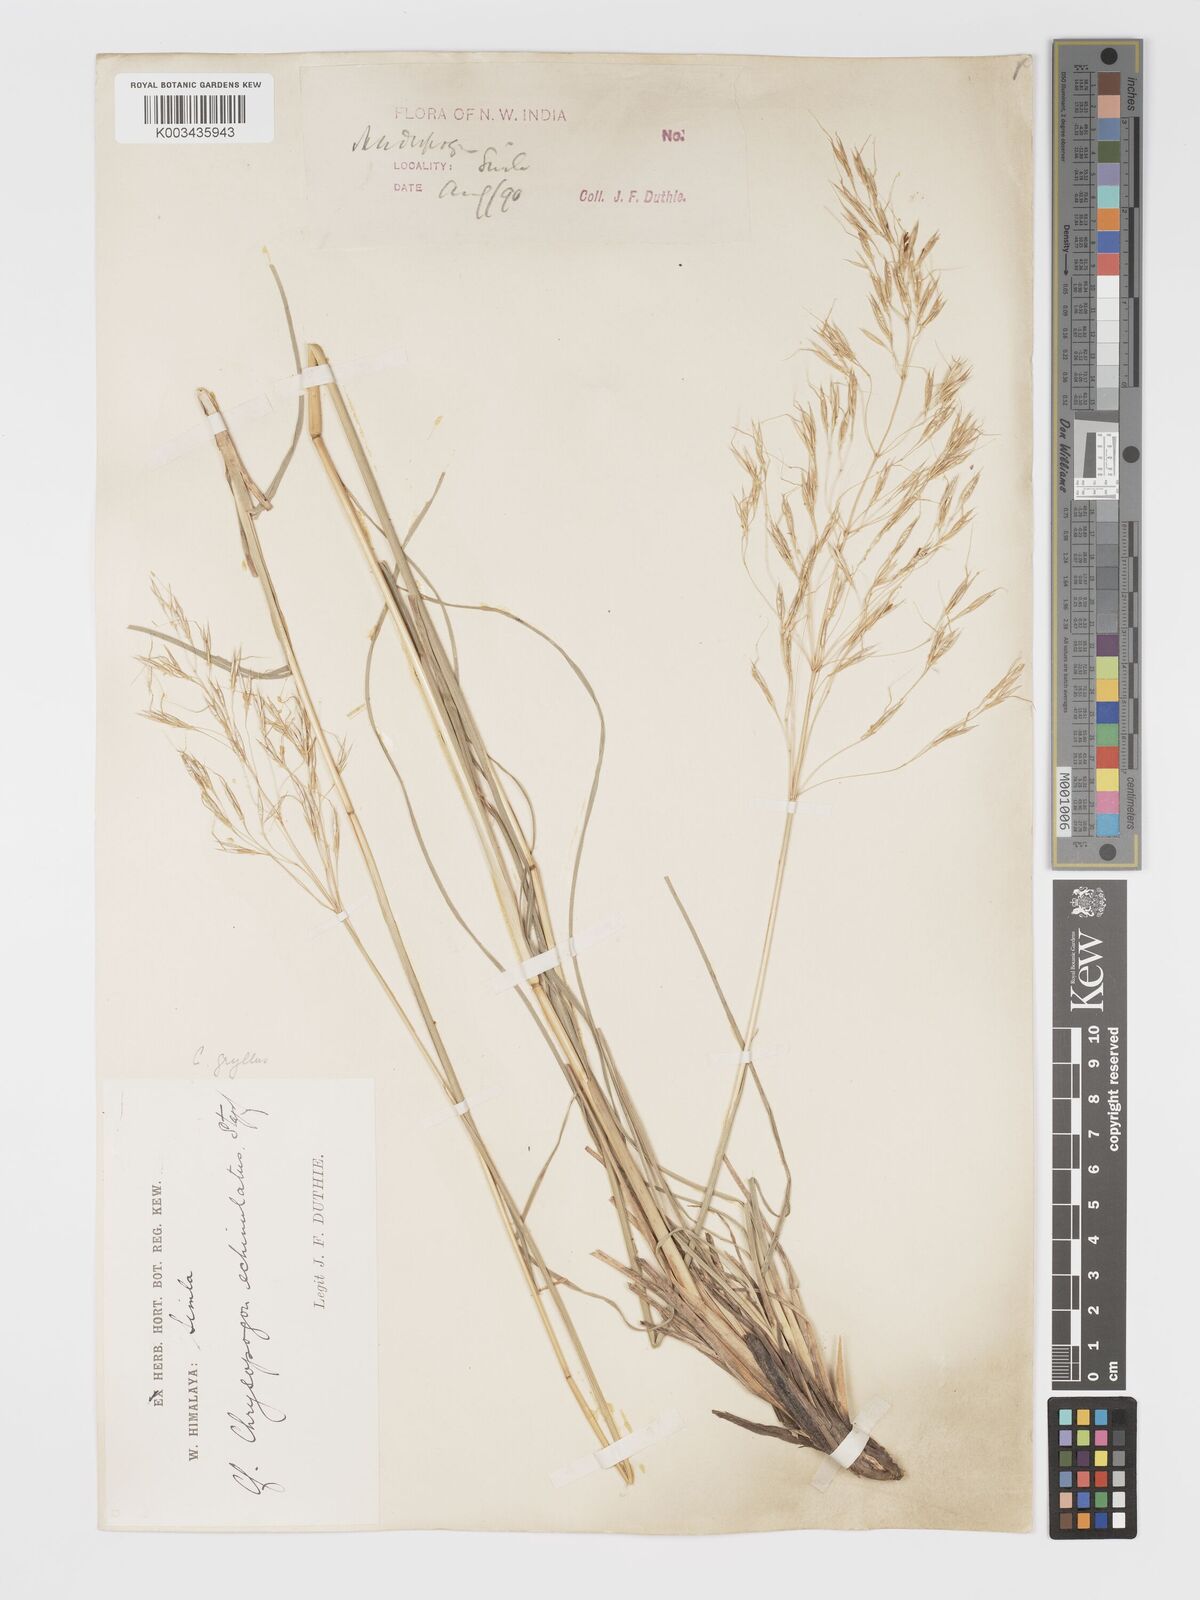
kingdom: Plantae
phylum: Tracheophyta
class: Liliopsida
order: Poales
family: Poaceae
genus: Chrysopogon
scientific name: Chrysopogon gryllus
